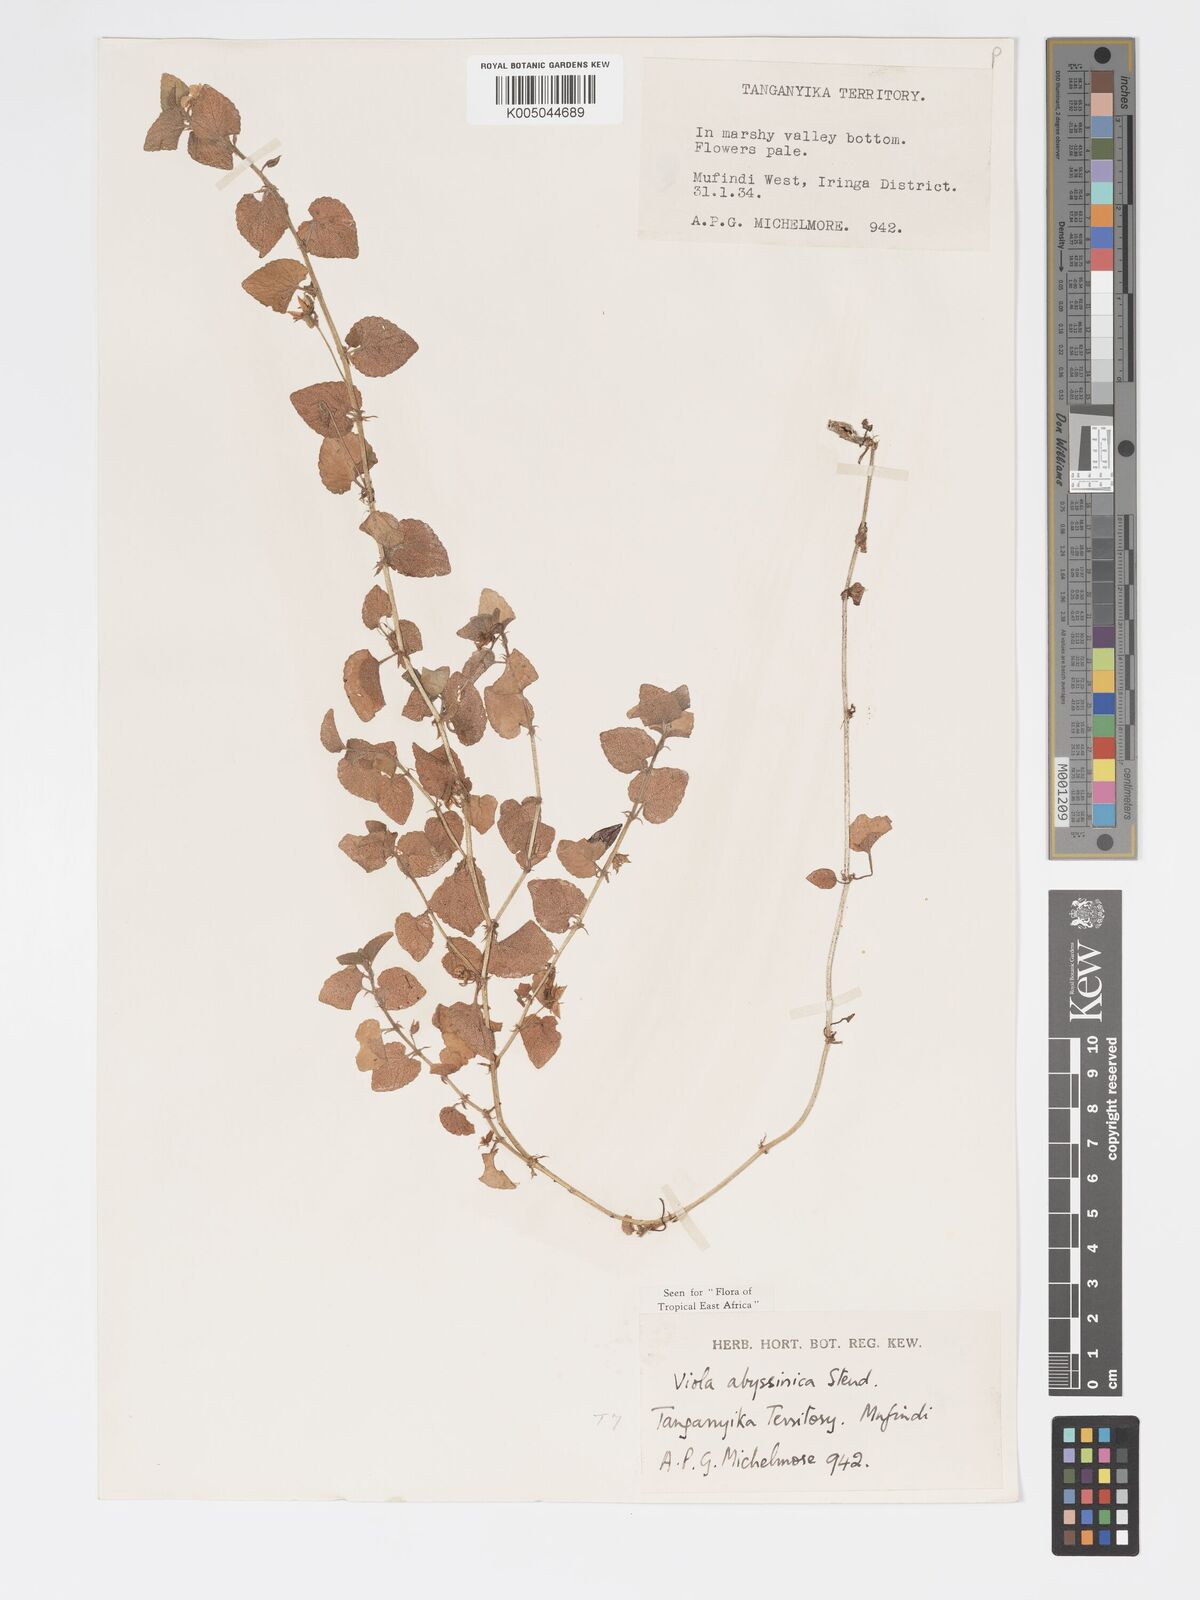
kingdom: Plantae
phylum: Tracheophyta
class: Magnoliopsida
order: Malpighiales
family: Violaceae
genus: Viola
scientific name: Viola abyssinica
